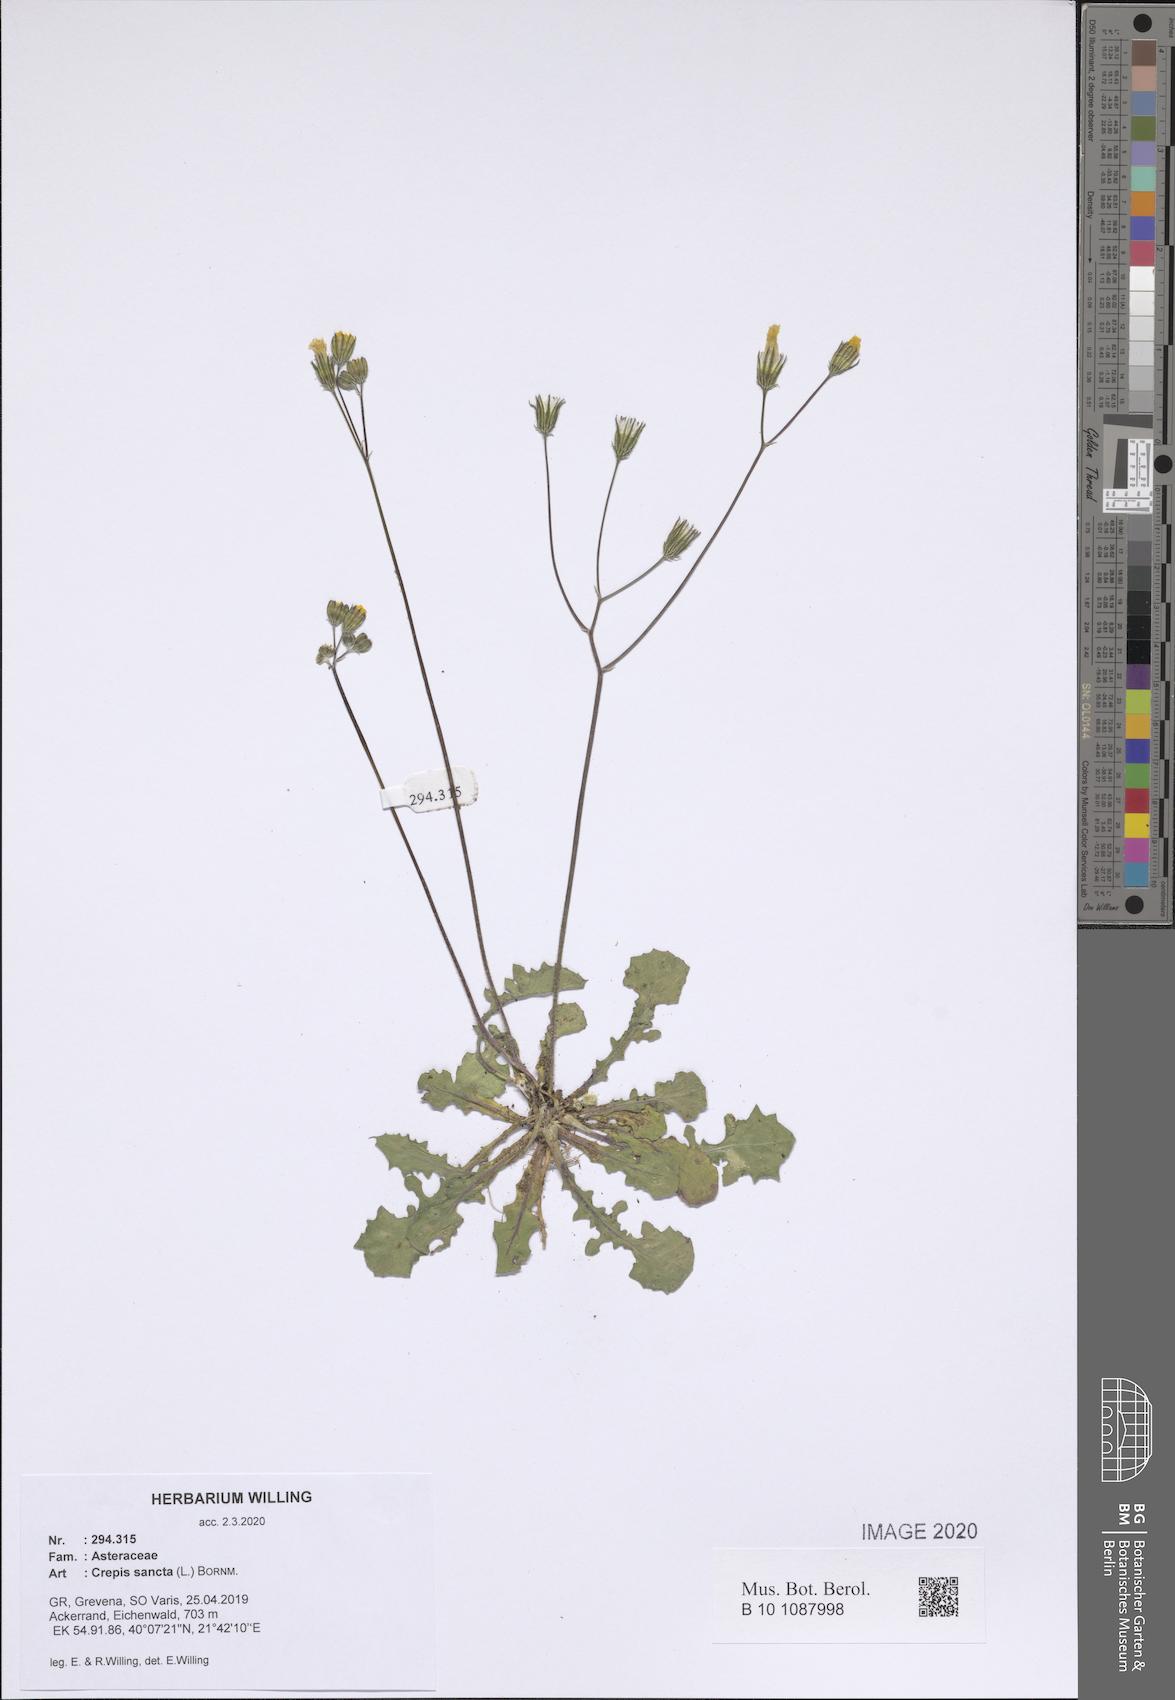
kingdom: Plantae
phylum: Tracheophyta
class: Magnoliopsida
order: Asterales
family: Asteraceae
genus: Crepis
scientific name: Crepis sancta
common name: Hawk's-beard
